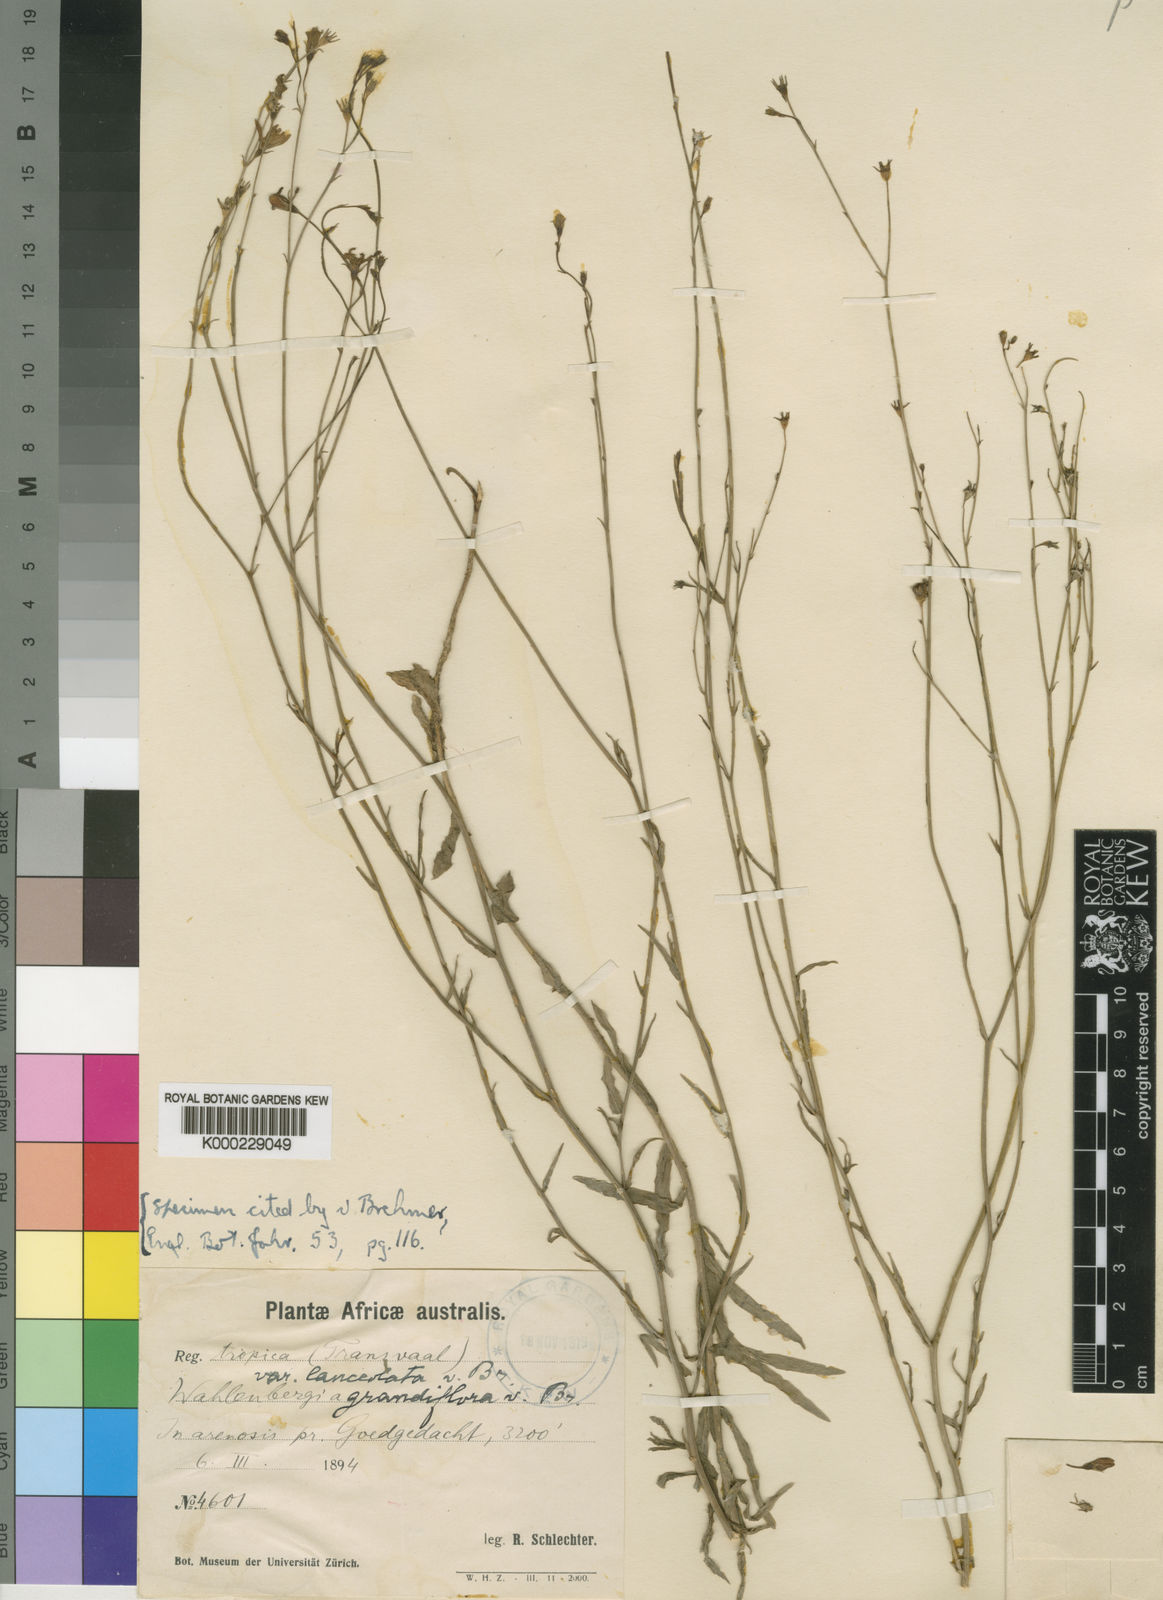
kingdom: Plantae
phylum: Tracheophyta
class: Magnoliopsida
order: Asterales
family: Campanulaceae
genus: Wahlenbergia
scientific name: Wahlenbergia grandiflora
